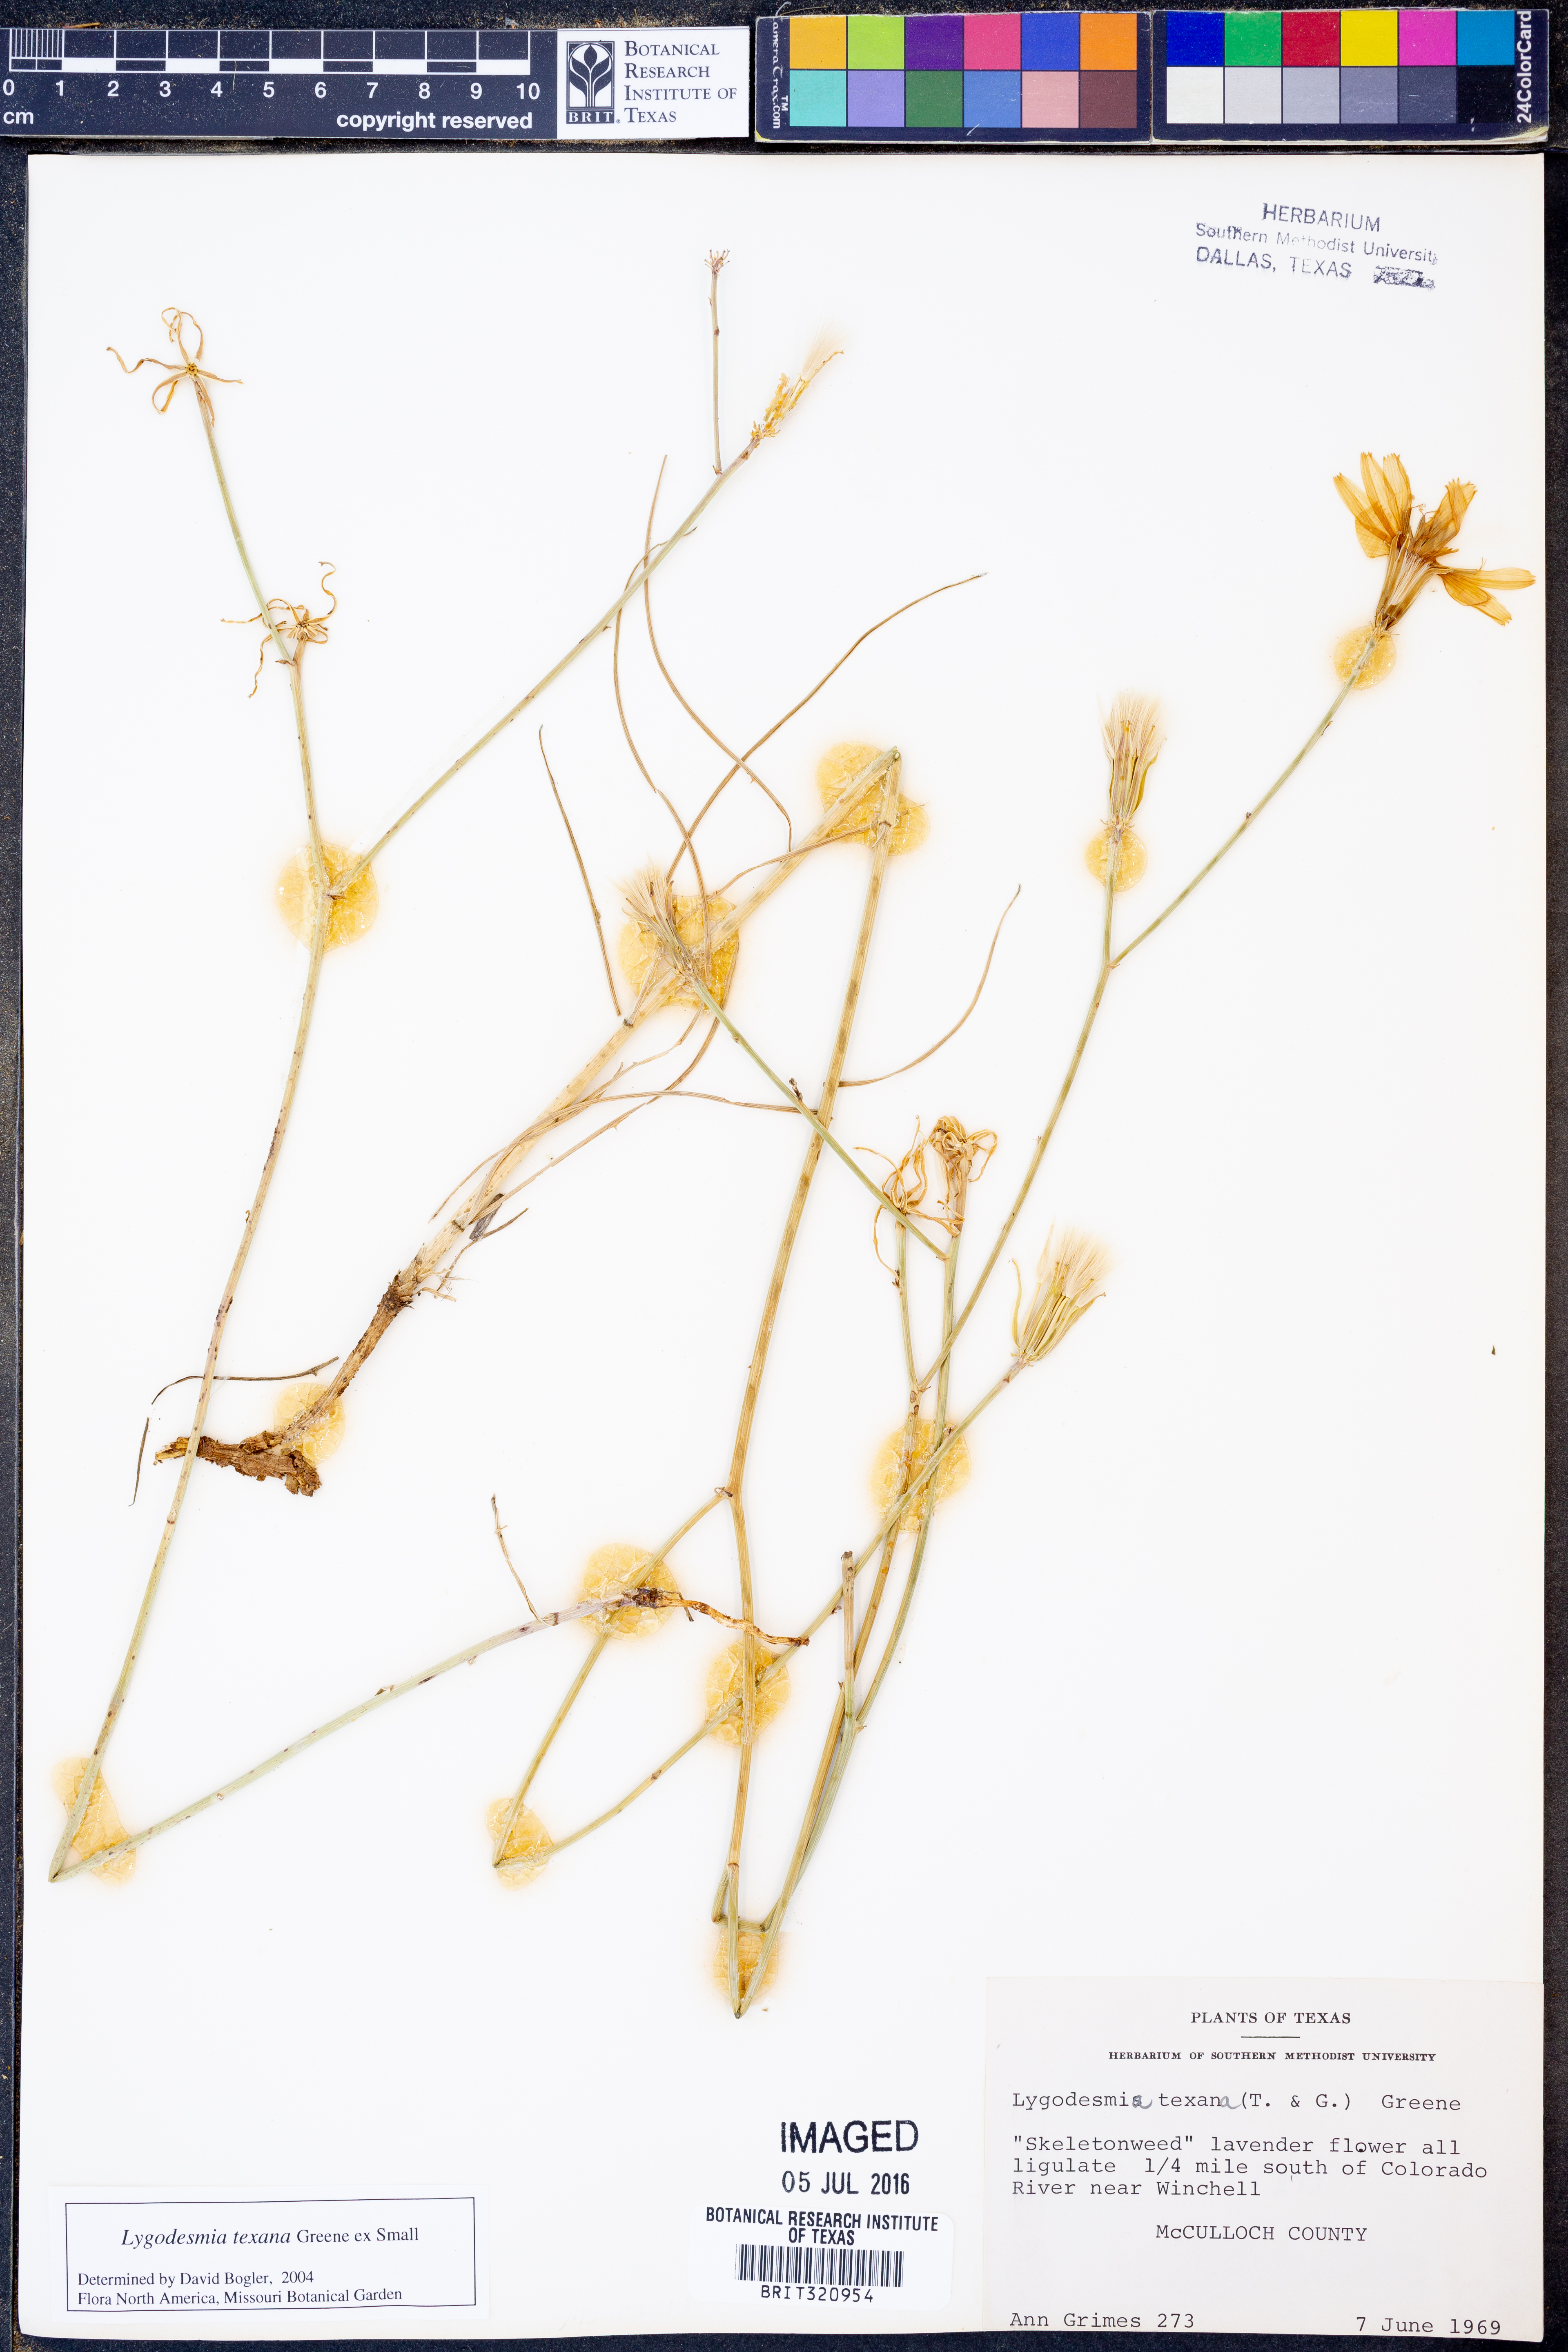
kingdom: Plantae
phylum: Tracheophyta
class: Magnoliopsida
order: Asterales
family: Asteraceae
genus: Lygodesmia
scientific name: Lygodesmia texana
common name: Texas skeleton-plant
